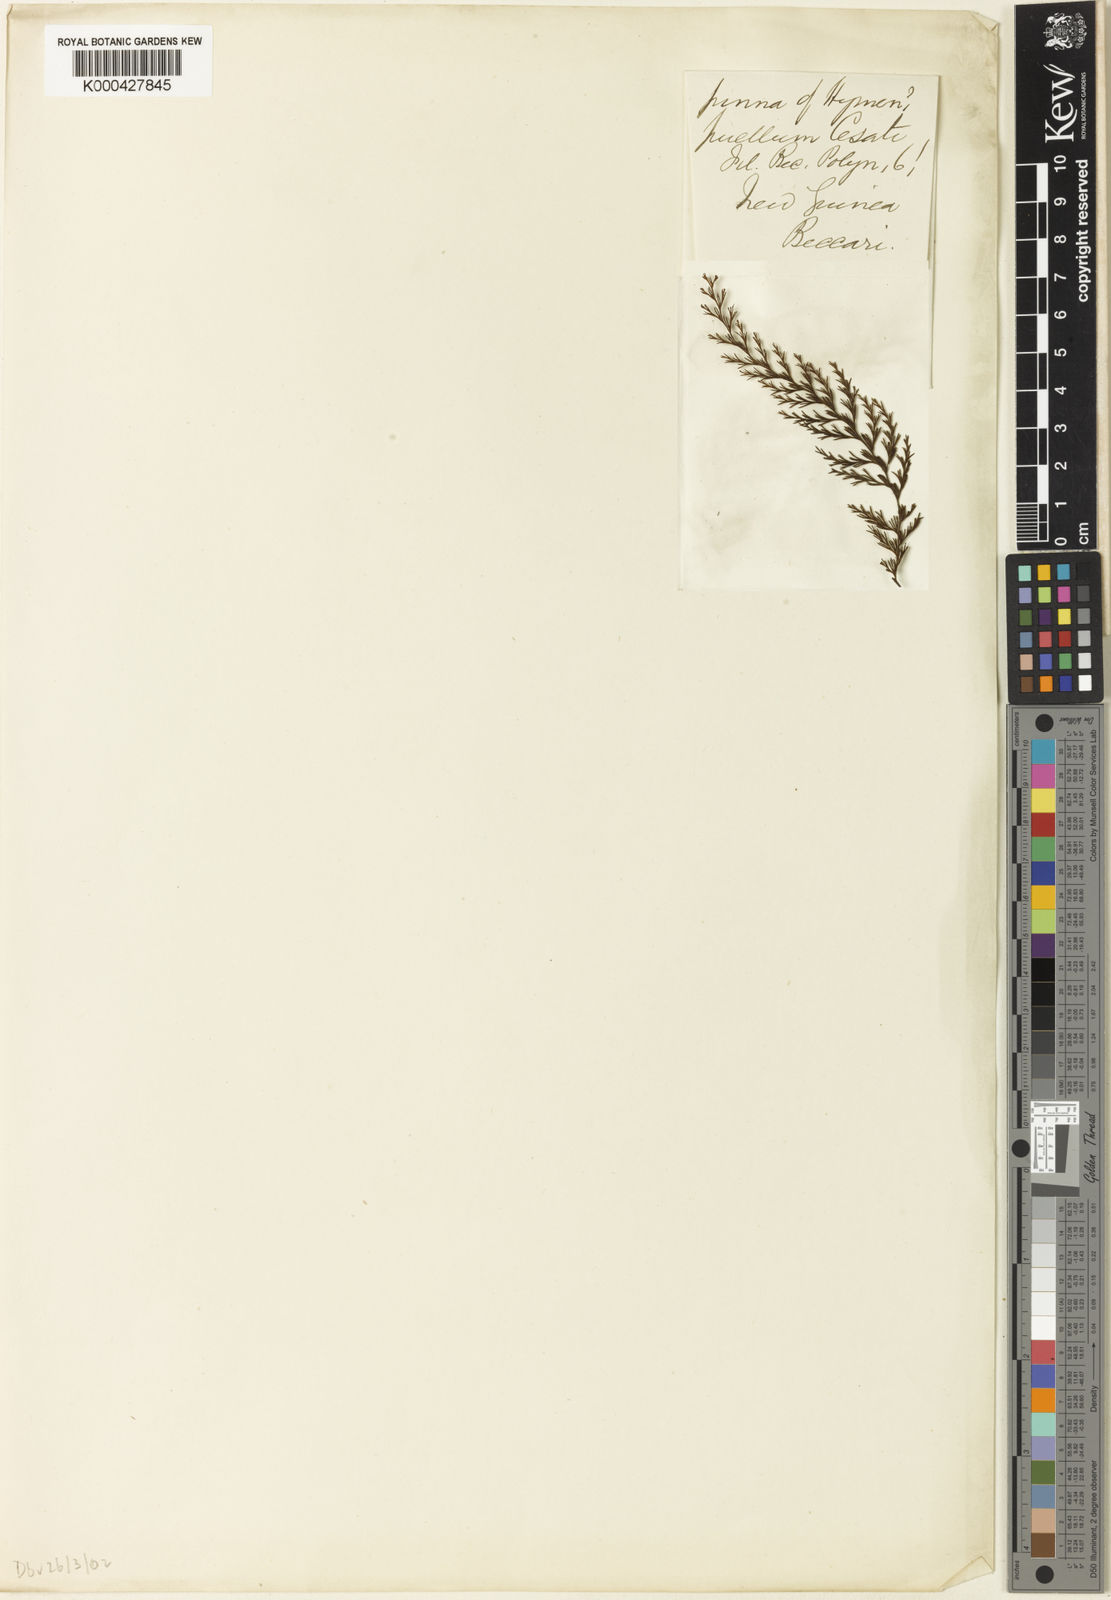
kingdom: Plantae
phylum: Tracheophyta
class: Polypodiopsida
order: Hymenophyllales
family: Hymenophyllaceae
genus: Hymenophyllum
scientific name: Hymenophyllum geluense
